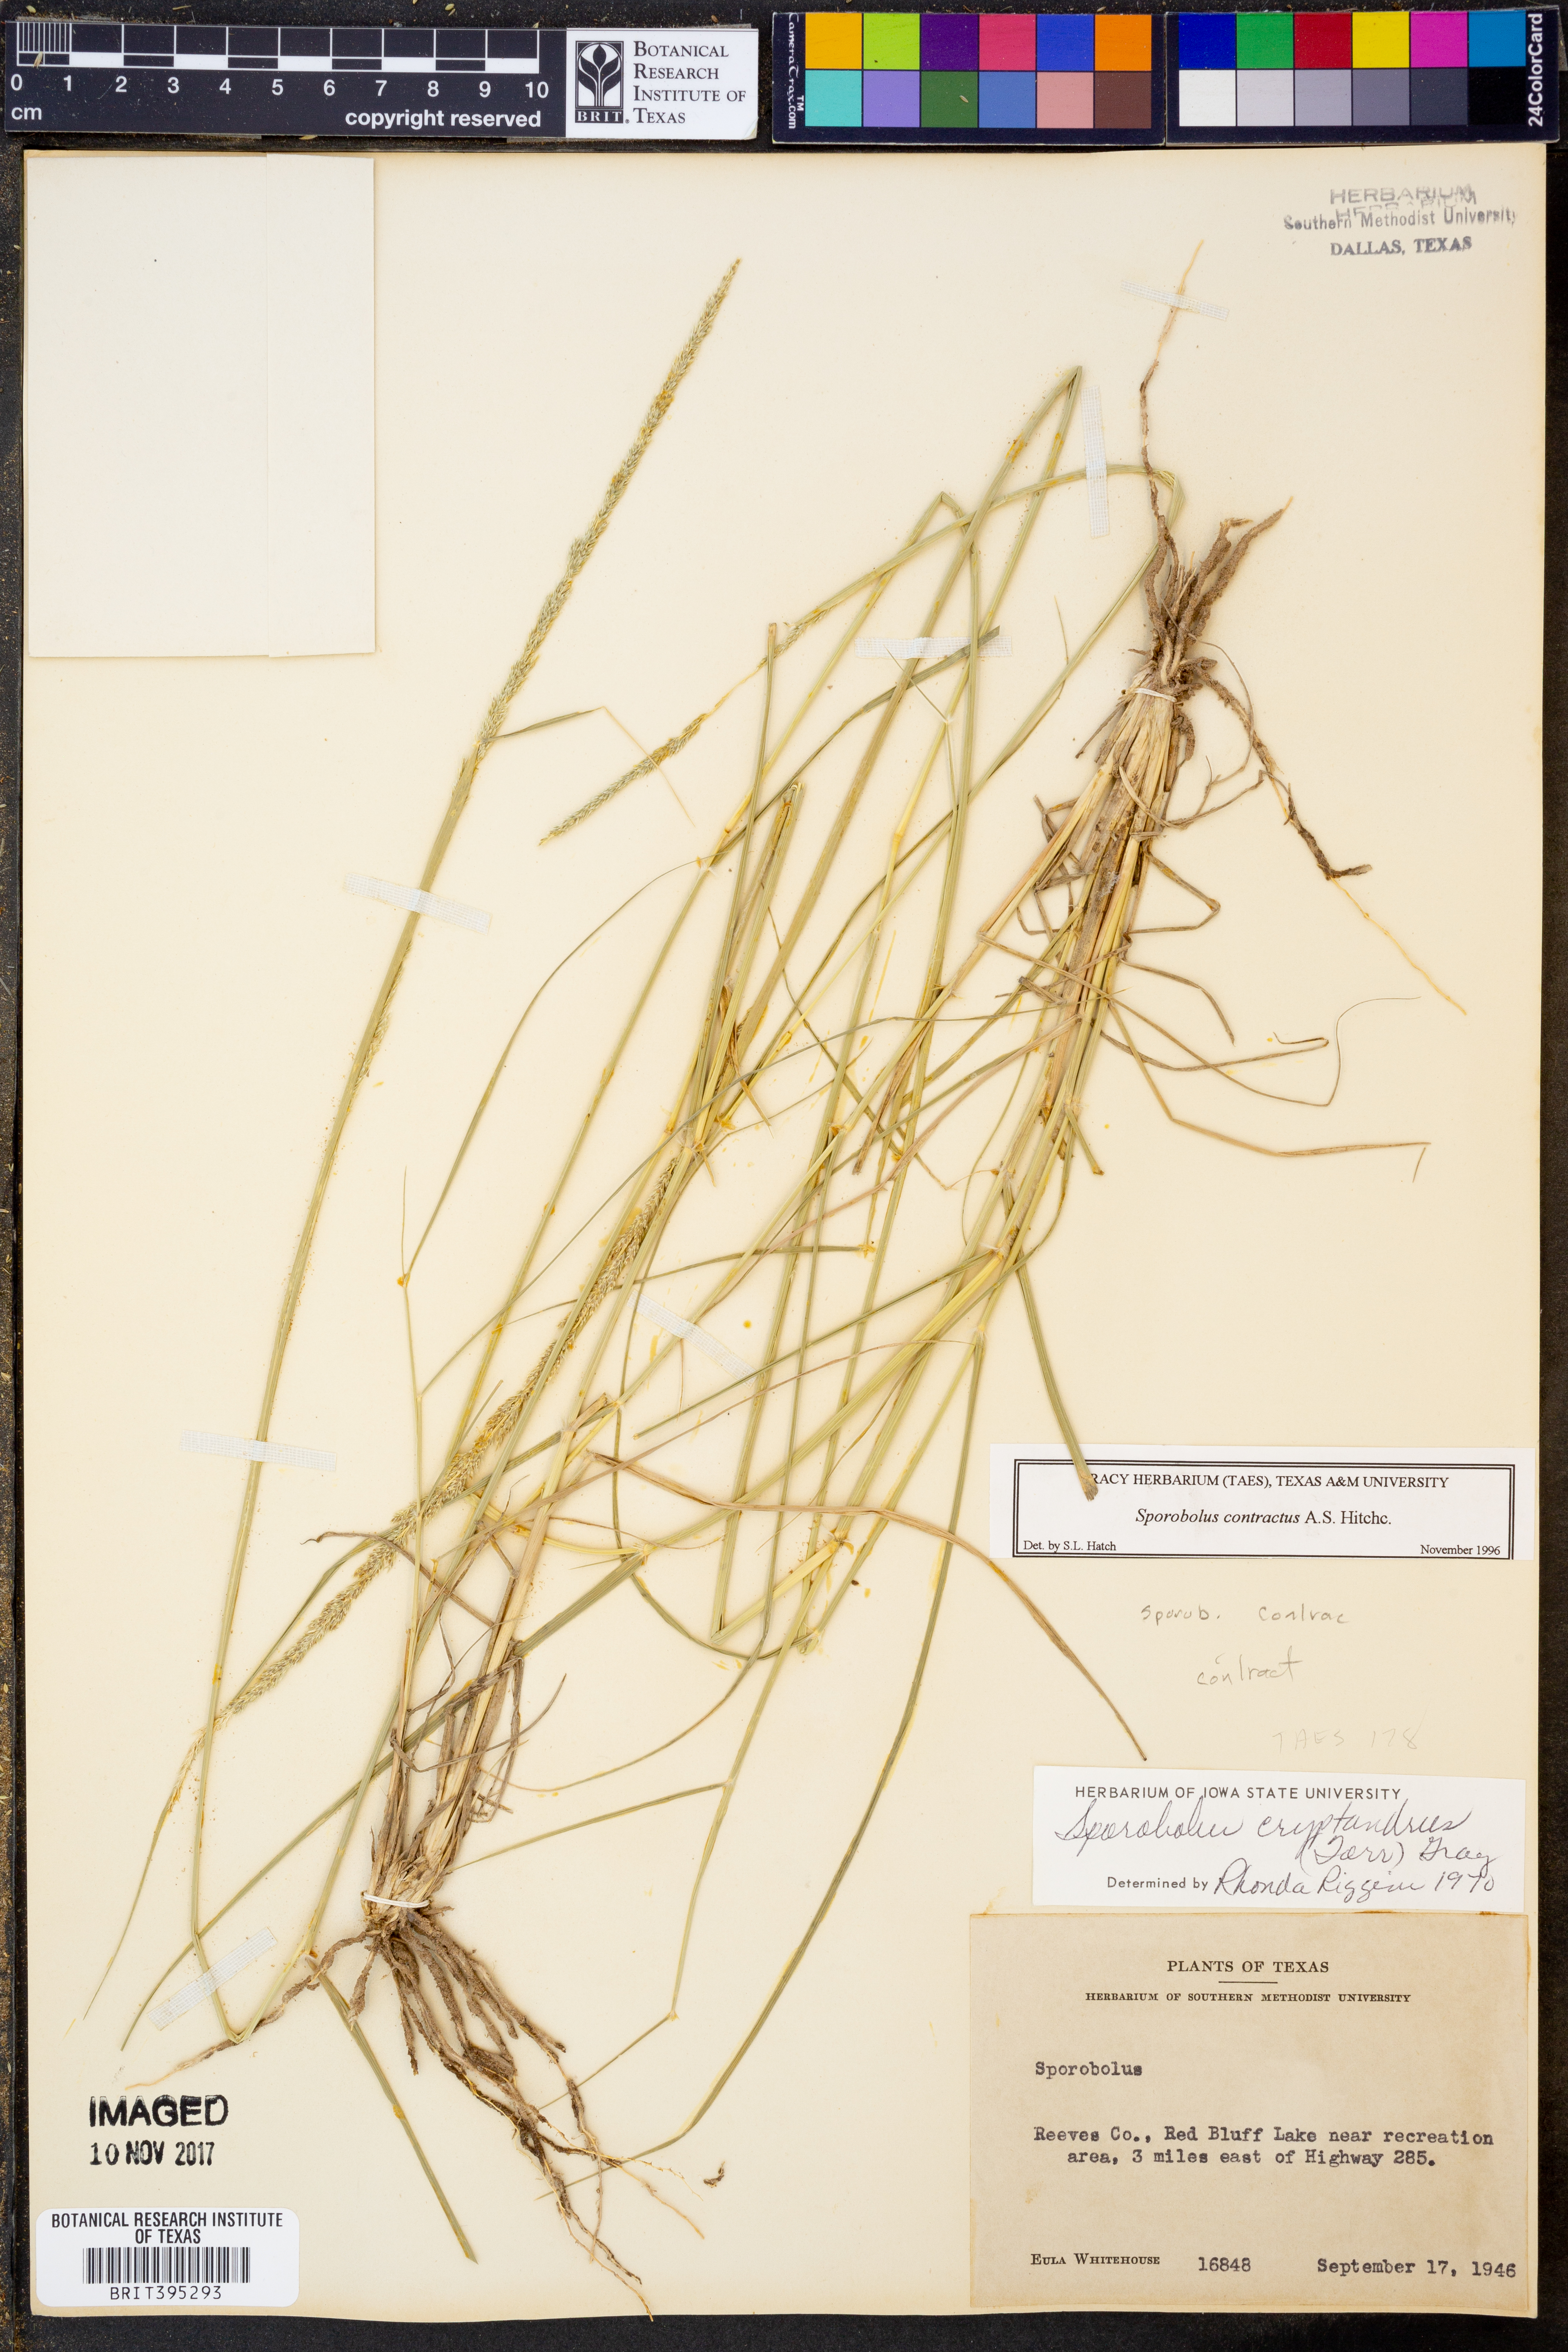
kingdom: Plantae
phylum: Tracheophyta
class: Liliopsida
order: Poales
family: Poaceae
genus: Sporobolus
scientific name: Sporobolus contractus
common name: Spike dropseed
